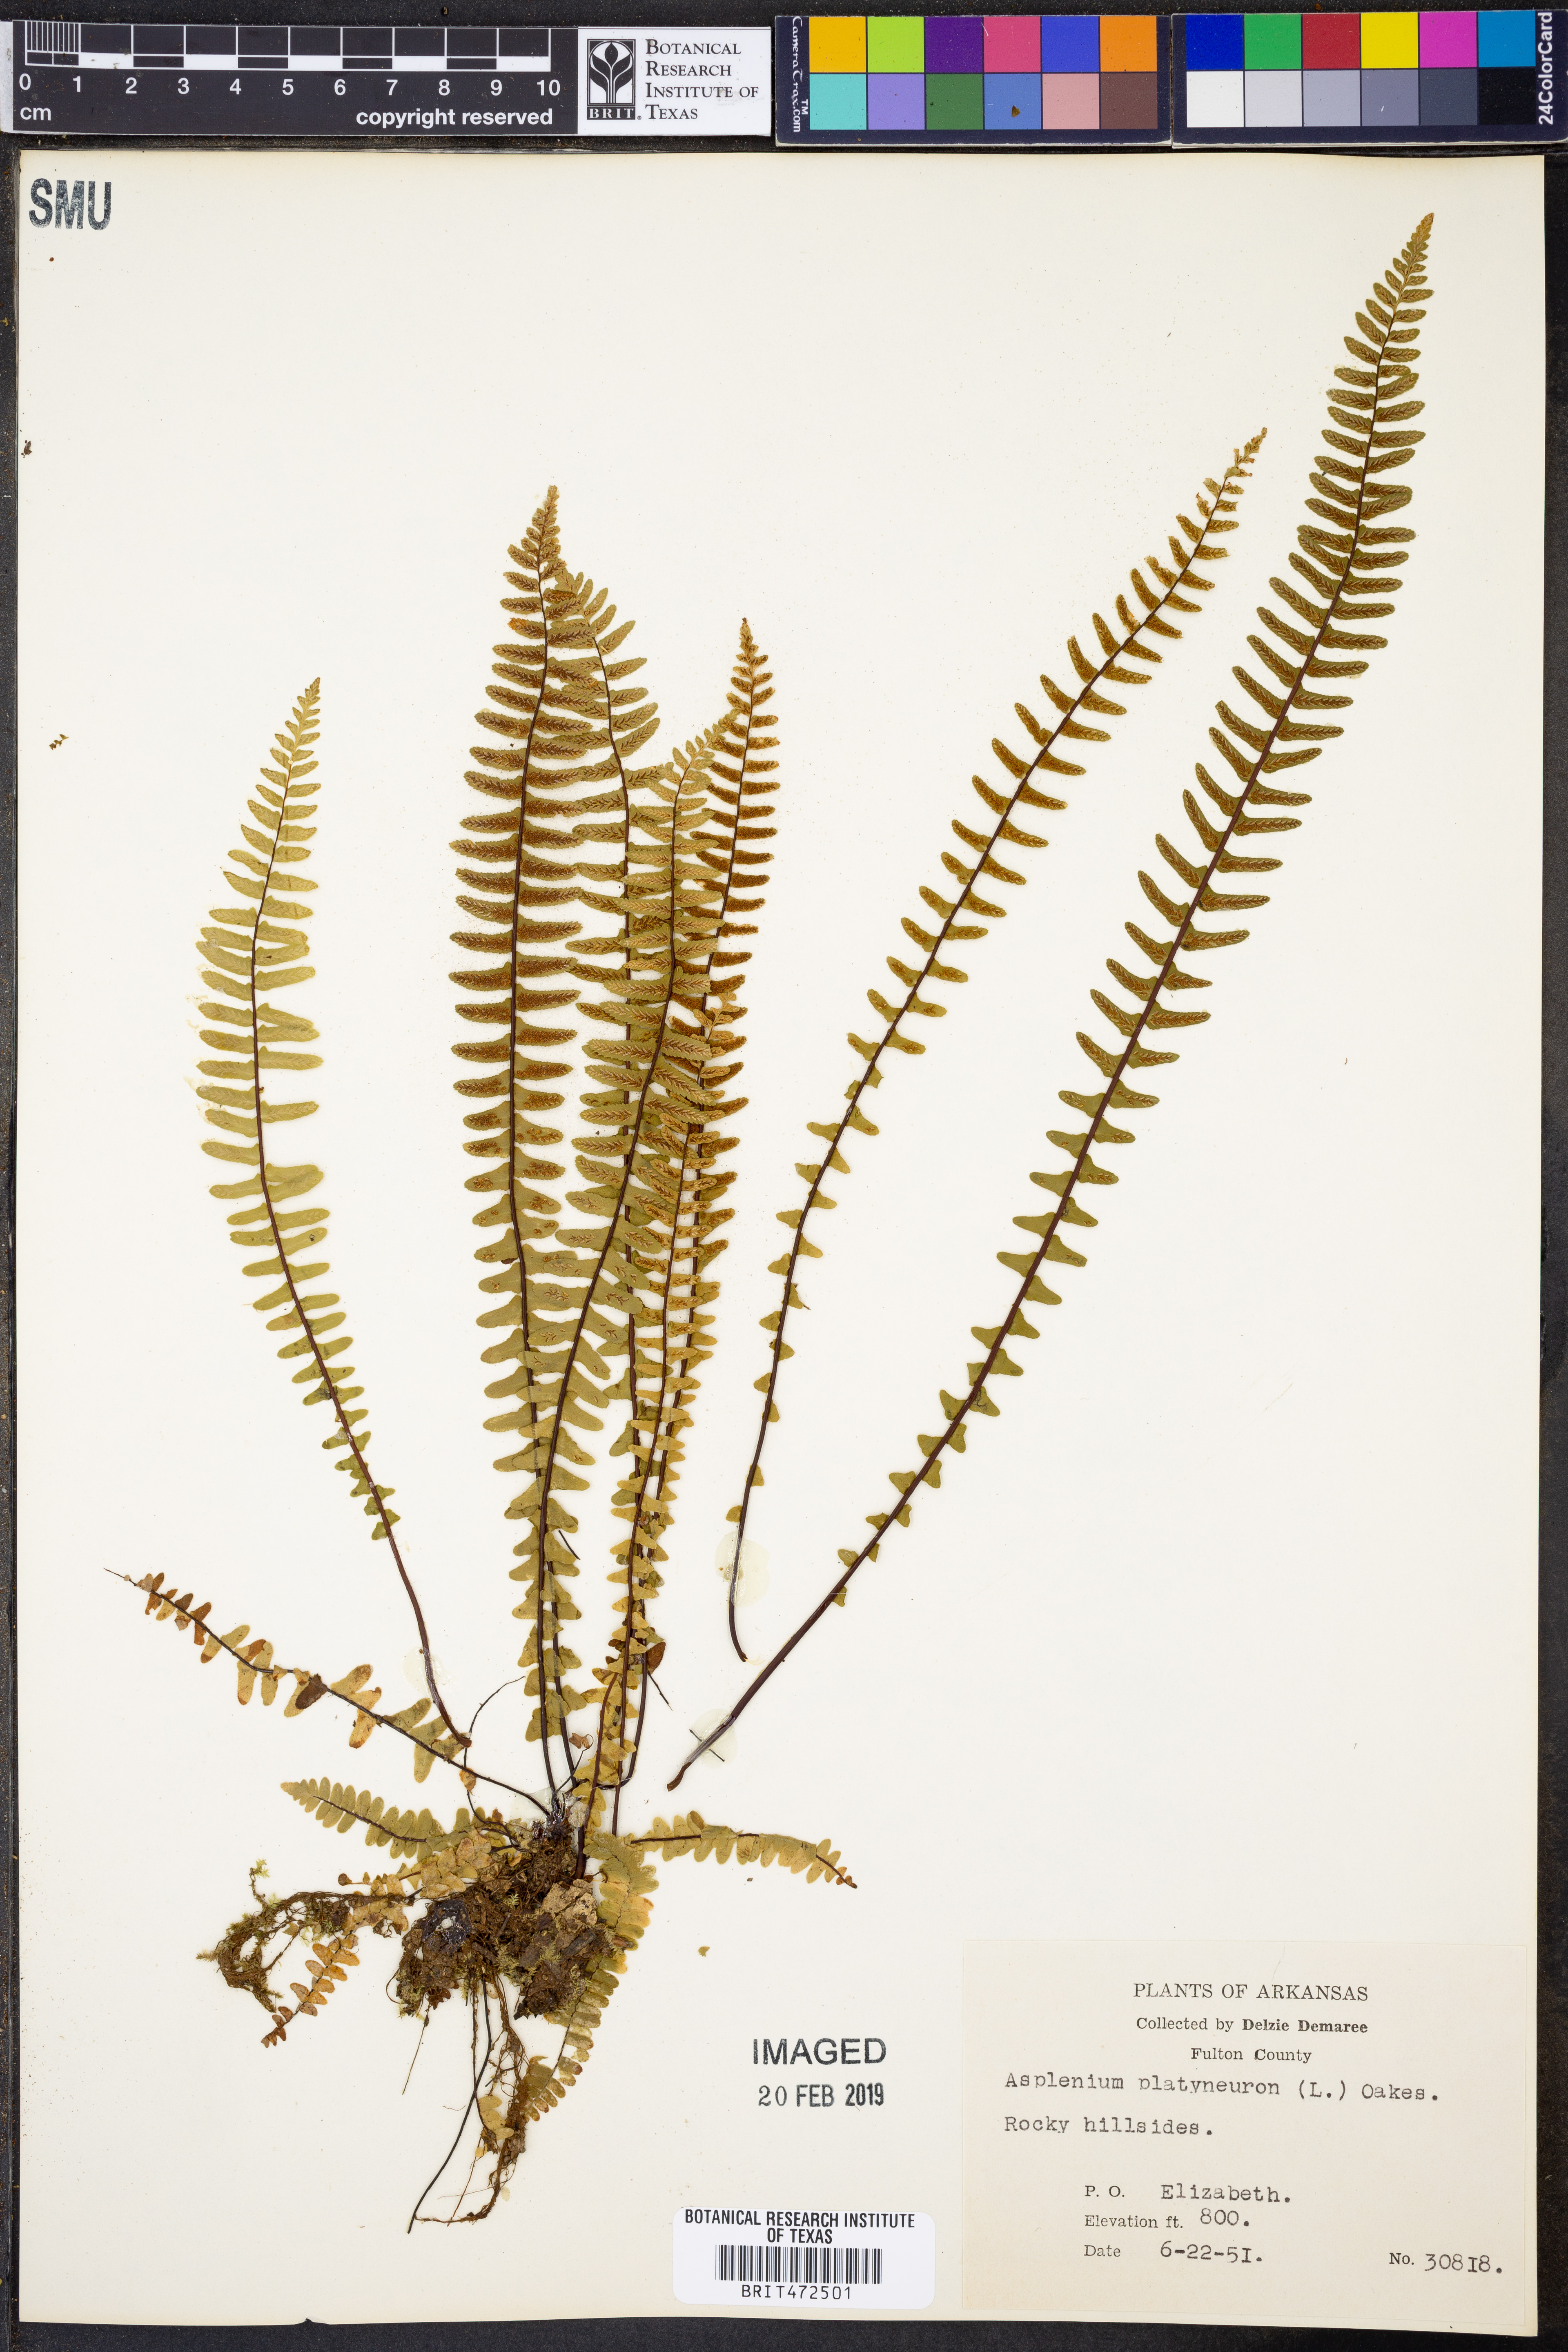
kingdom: Plantae
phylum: Tracheophyta
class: Polypodiopsida
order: Polypodiales
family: Aspleniaceae
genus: Asplenium
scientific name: Asplenium platyneuron
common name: Ebony spleenwort
